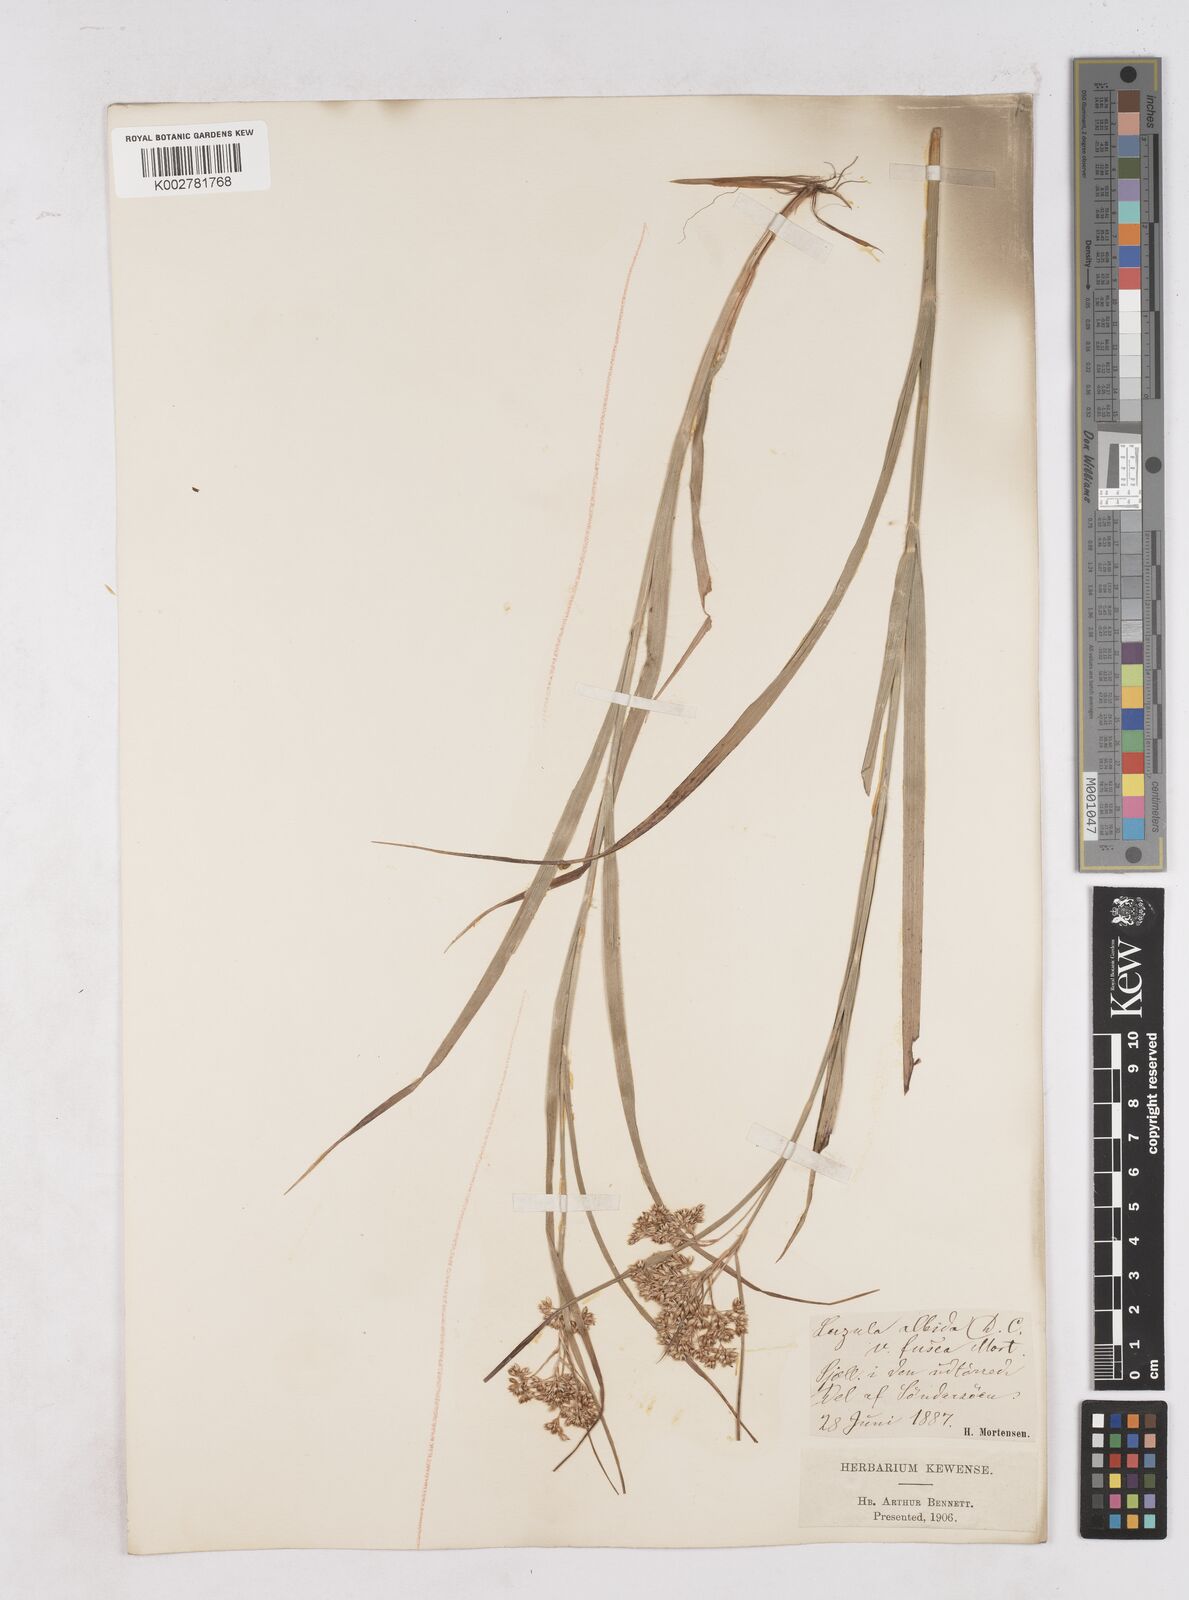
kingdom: Plantae
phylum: Tracheophyta
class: Liliopsida
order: Poales
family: Juncaceae
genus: Luzula
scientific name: Luzula luzuloides
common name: White wood-rush
